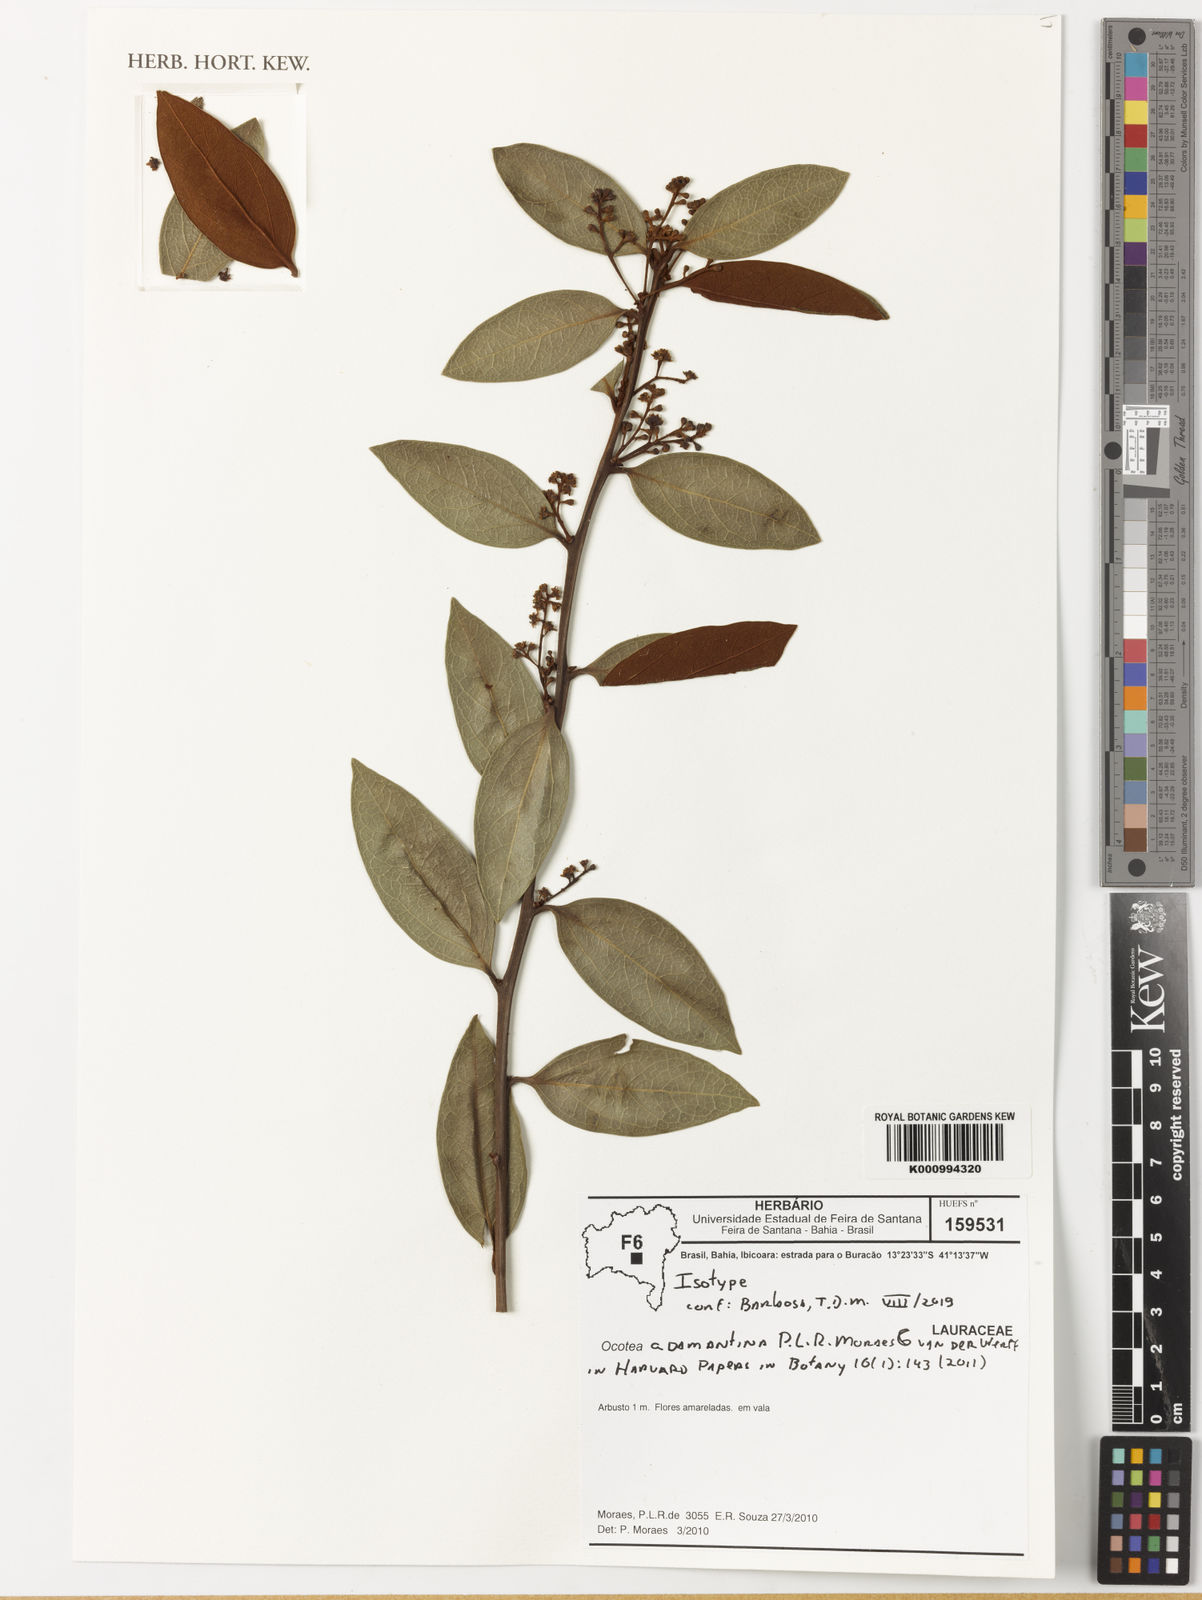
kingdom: Plantae
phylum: Tracheophyta
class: Magnoliopsida
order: Laurales
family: Lauraceae
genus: Ocotea
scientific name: Ocotea adamantina
